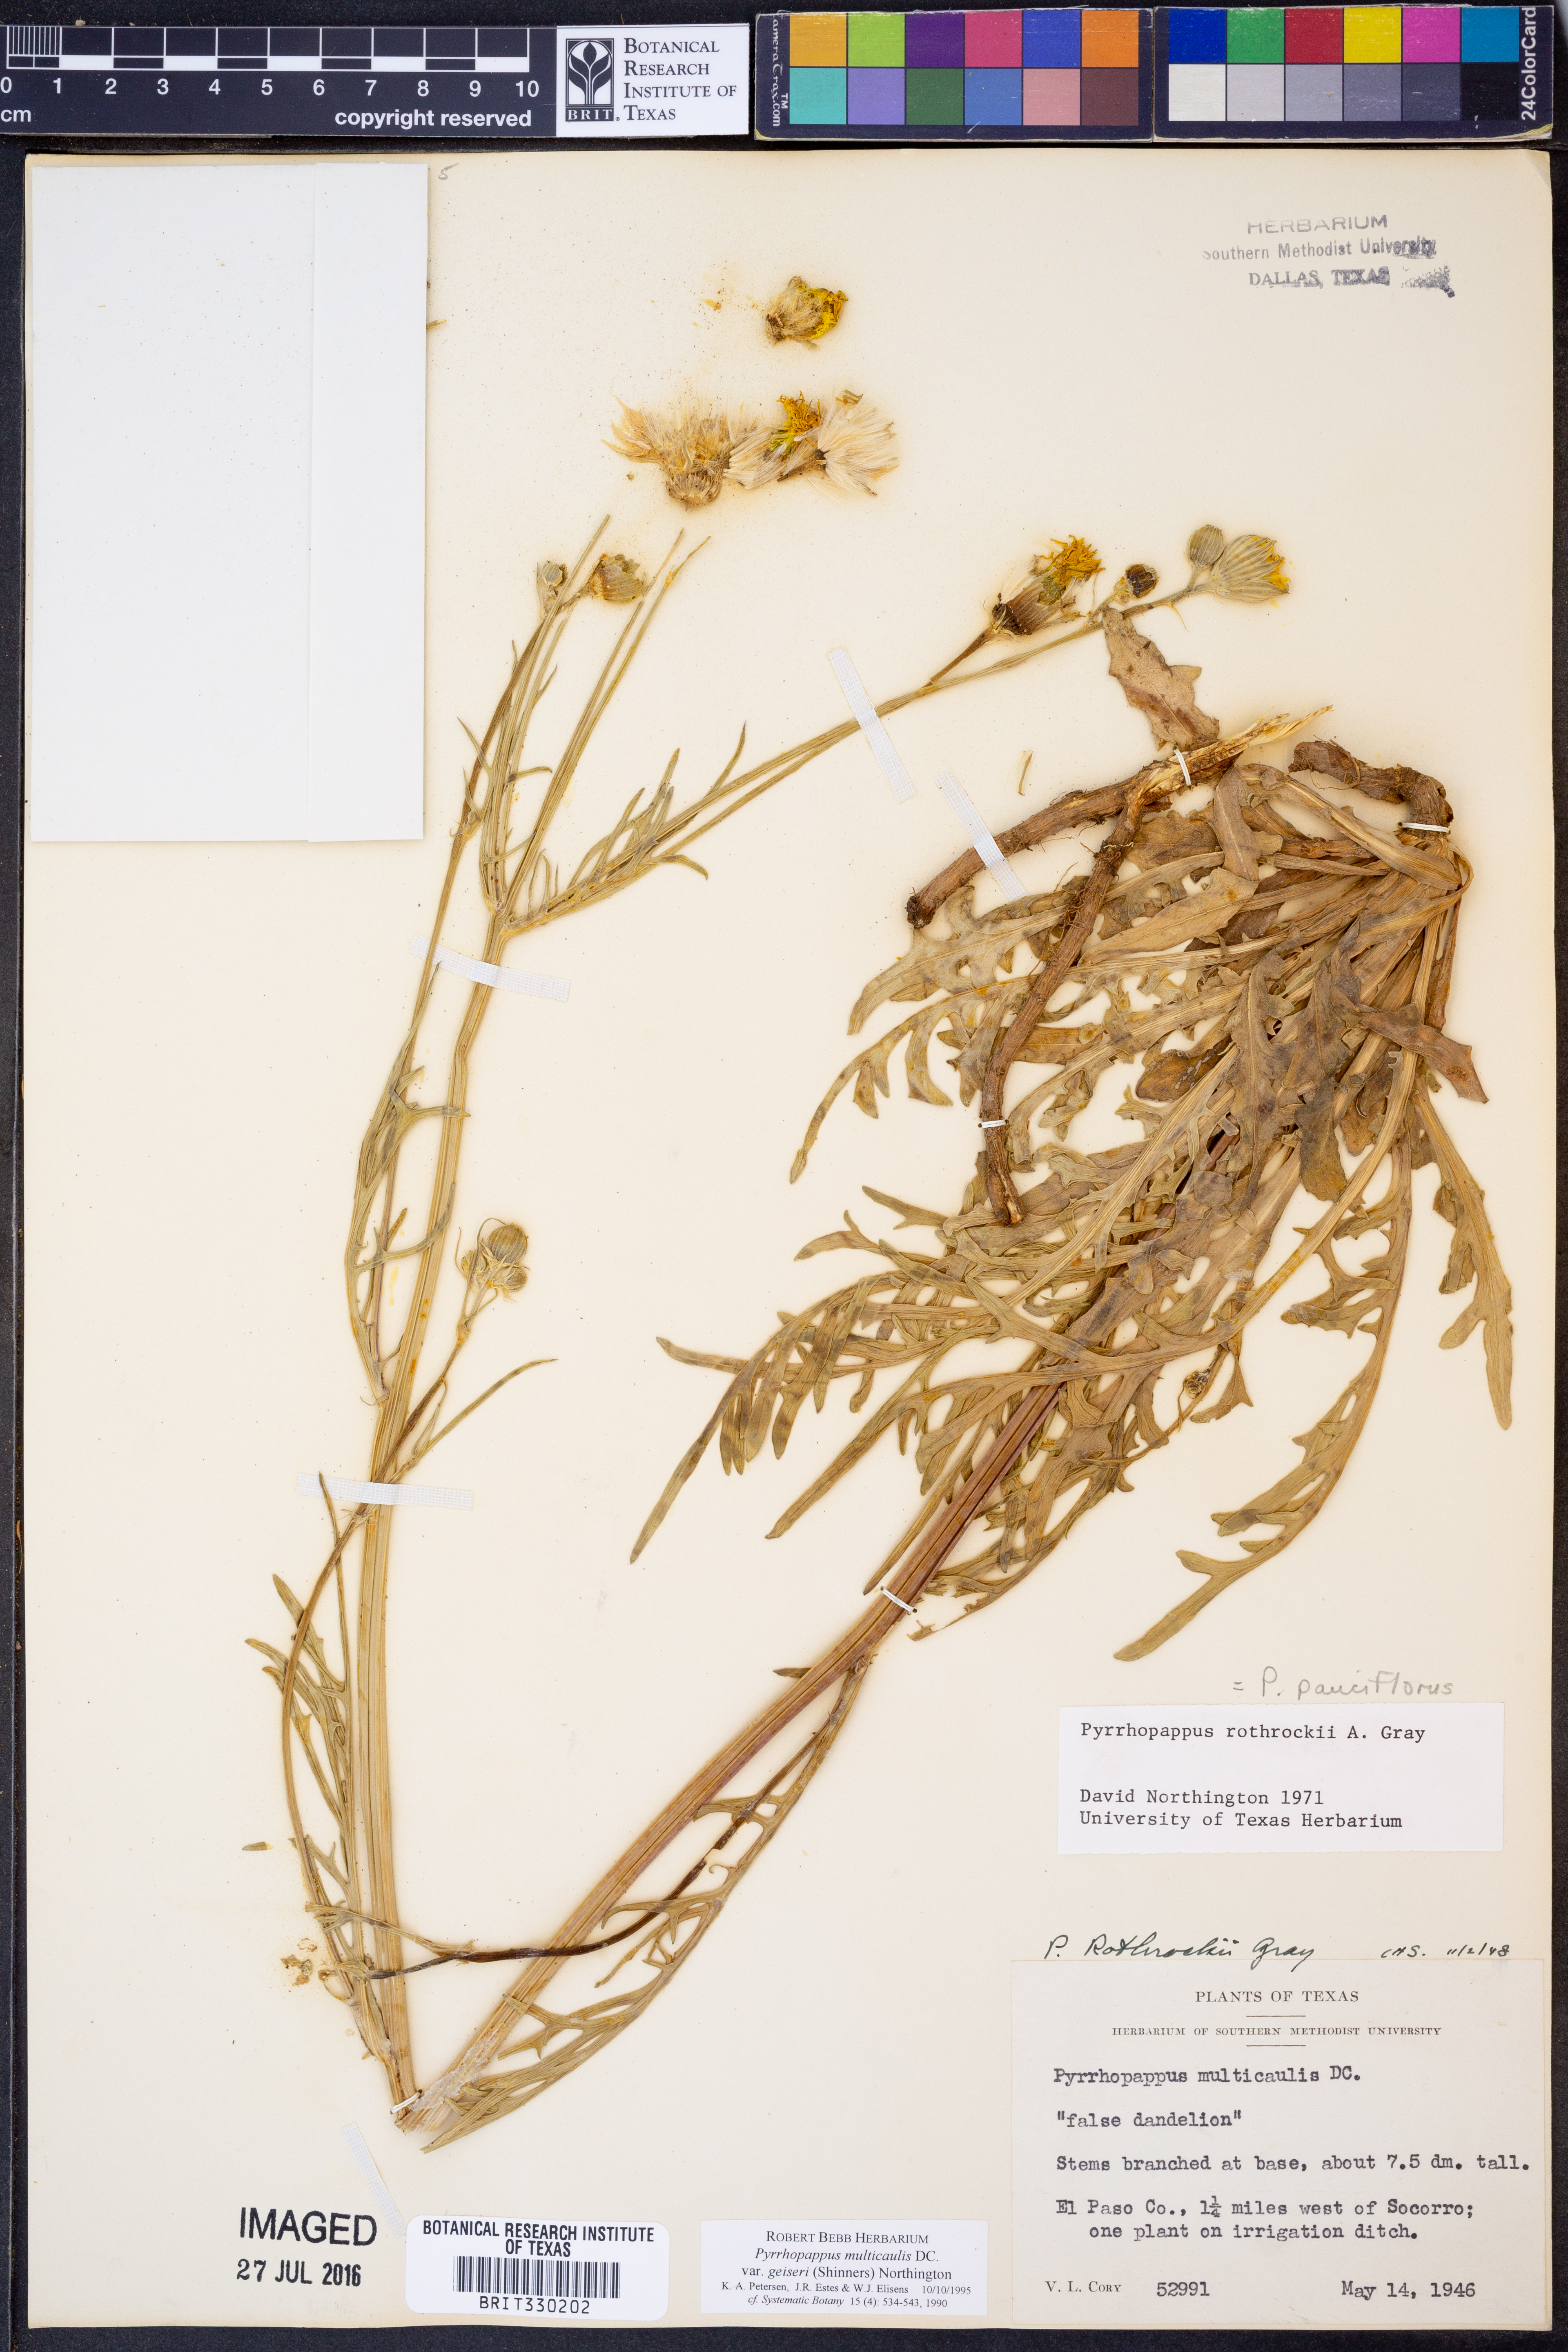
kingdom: Plantae
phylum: Tracheophyta
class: Magnoliopsida
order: Asterales
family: Asteraceae
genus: Pyrrhopappus
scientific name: Pyrrhopappus pauciflorus
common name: Texas false dandelion
